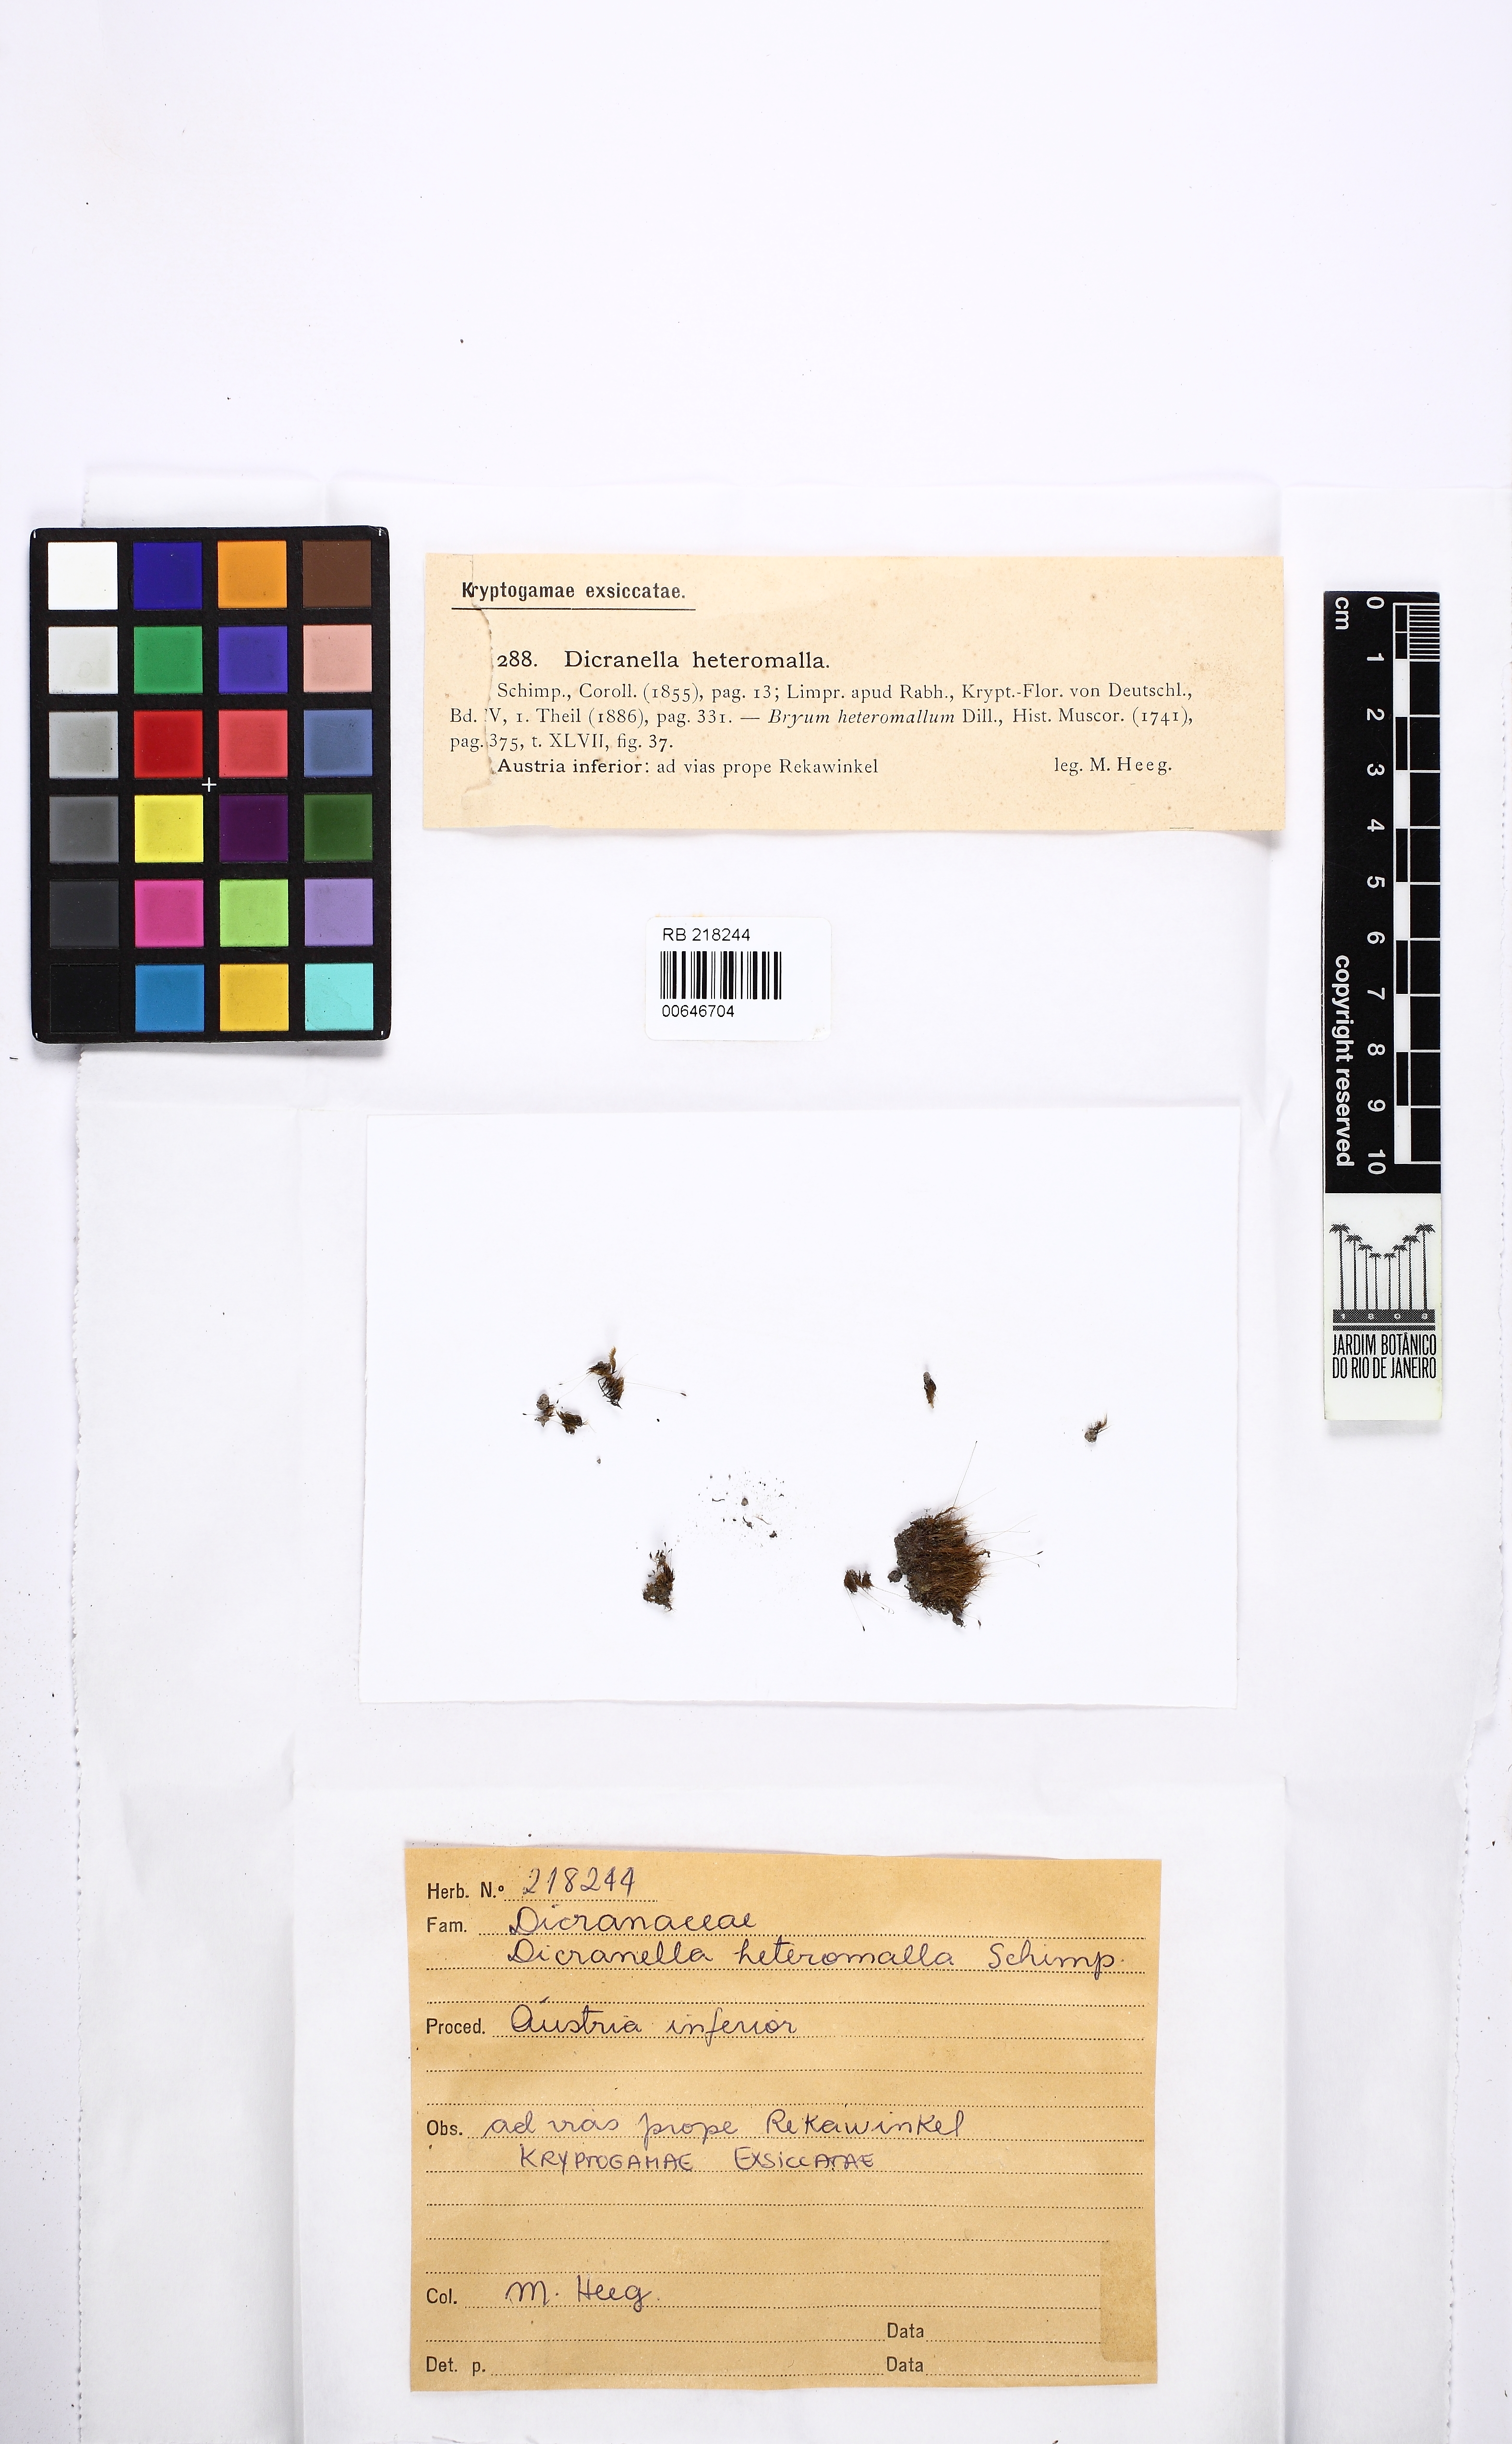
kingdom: Plantae
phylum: Bryophyta
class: Bryopsida
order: Dicranales
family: Dicranellaceae
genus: Dicranella
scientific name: Dicranella heteromalla
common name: Silky forklet moss
